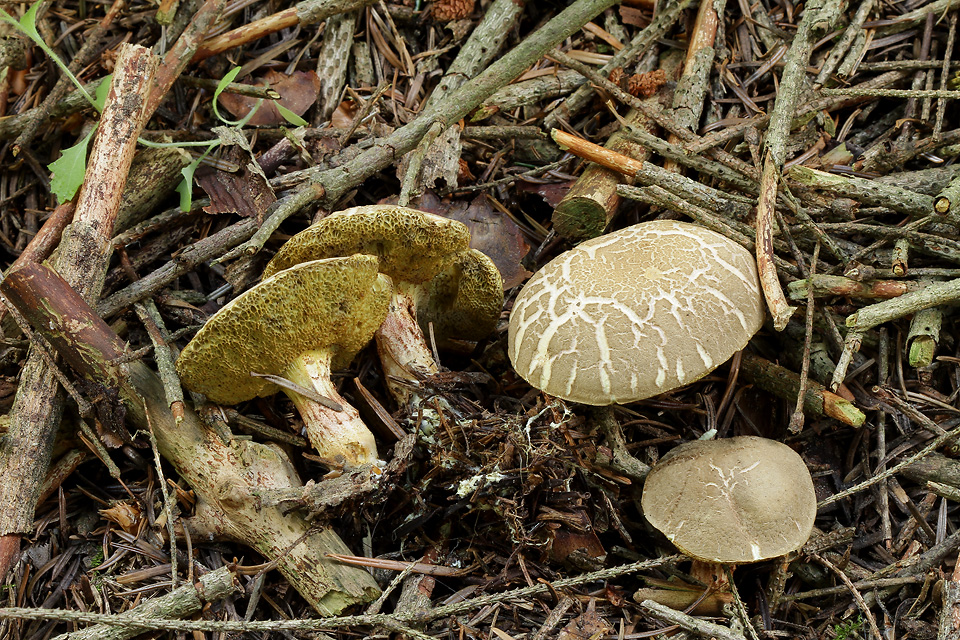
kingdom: Fungi
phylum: Basidiomycota
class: Agaricomycetes
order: Boletales
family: Boletaceae
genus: Xerocomellus
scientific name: Xerocomellus porosporus
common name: hvidsprukken rørhat
